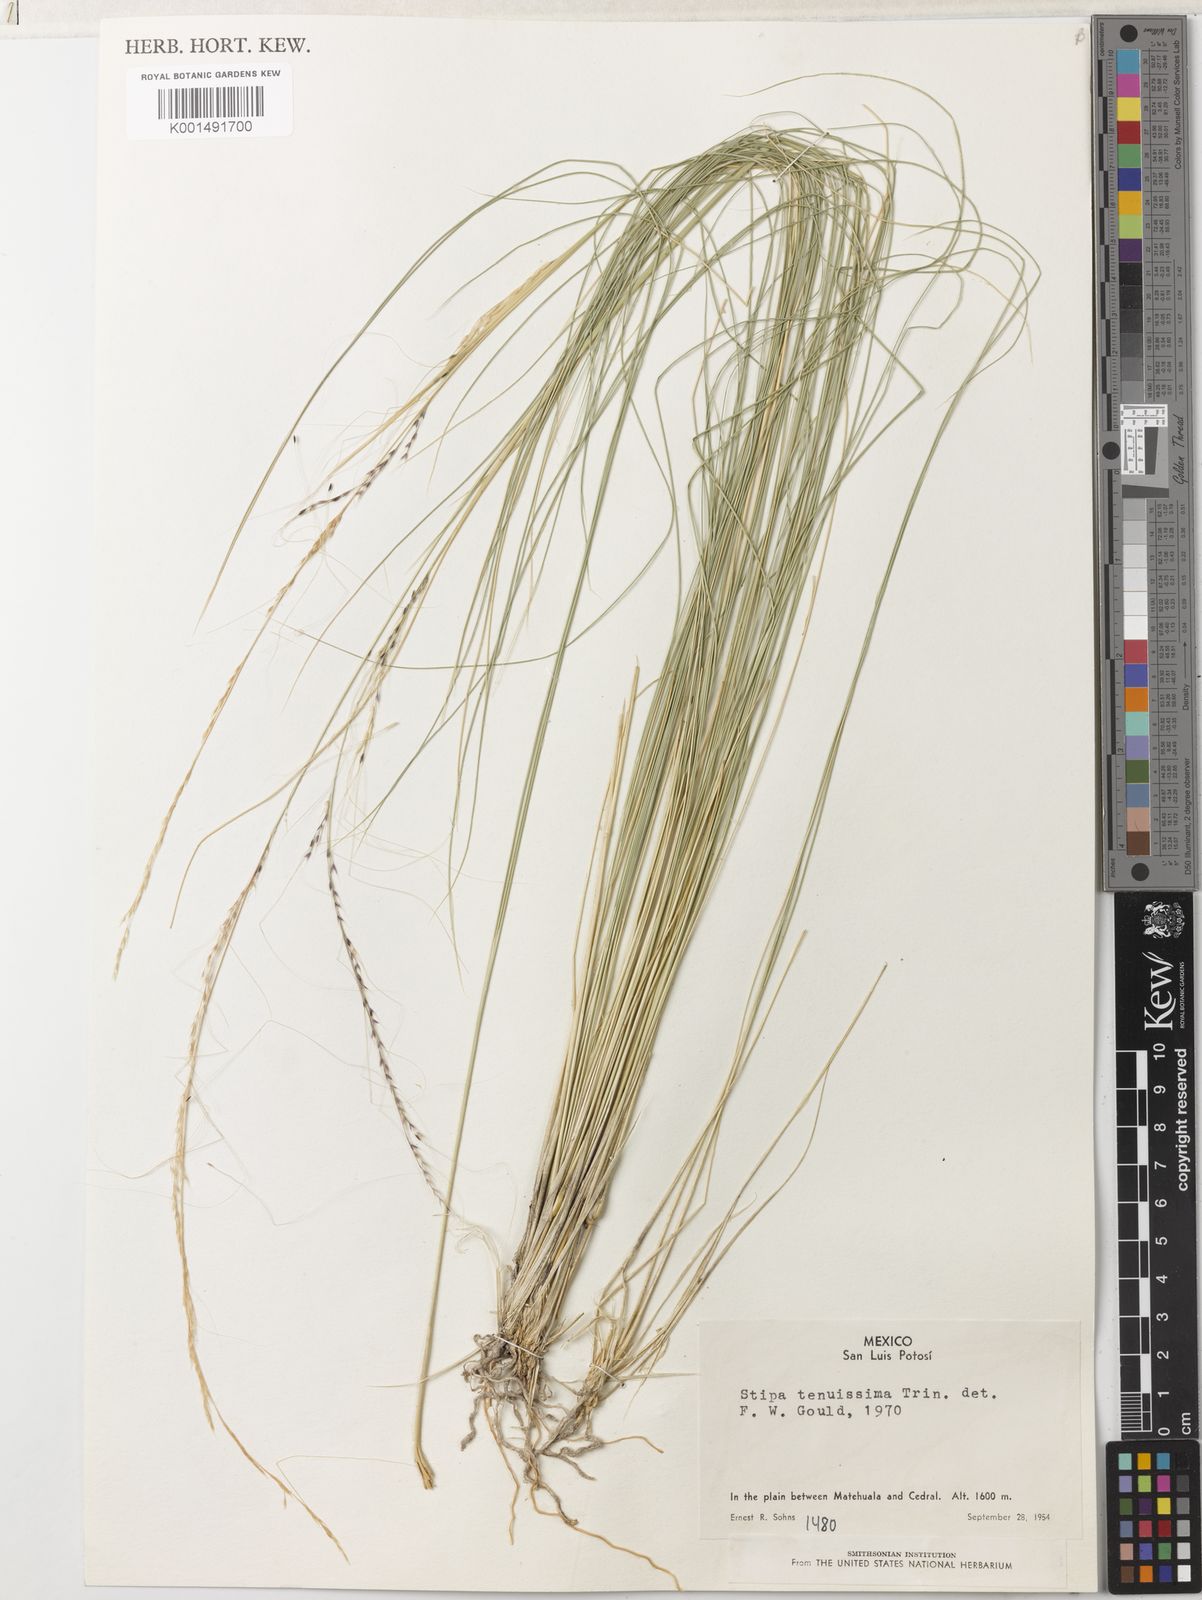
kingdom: Plantae
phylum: Tracheophyta
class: Liliopsida
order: Poales
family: Poaceae
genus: Nassella
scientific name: Nassella tenuissima
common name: Argentine needlegrass
